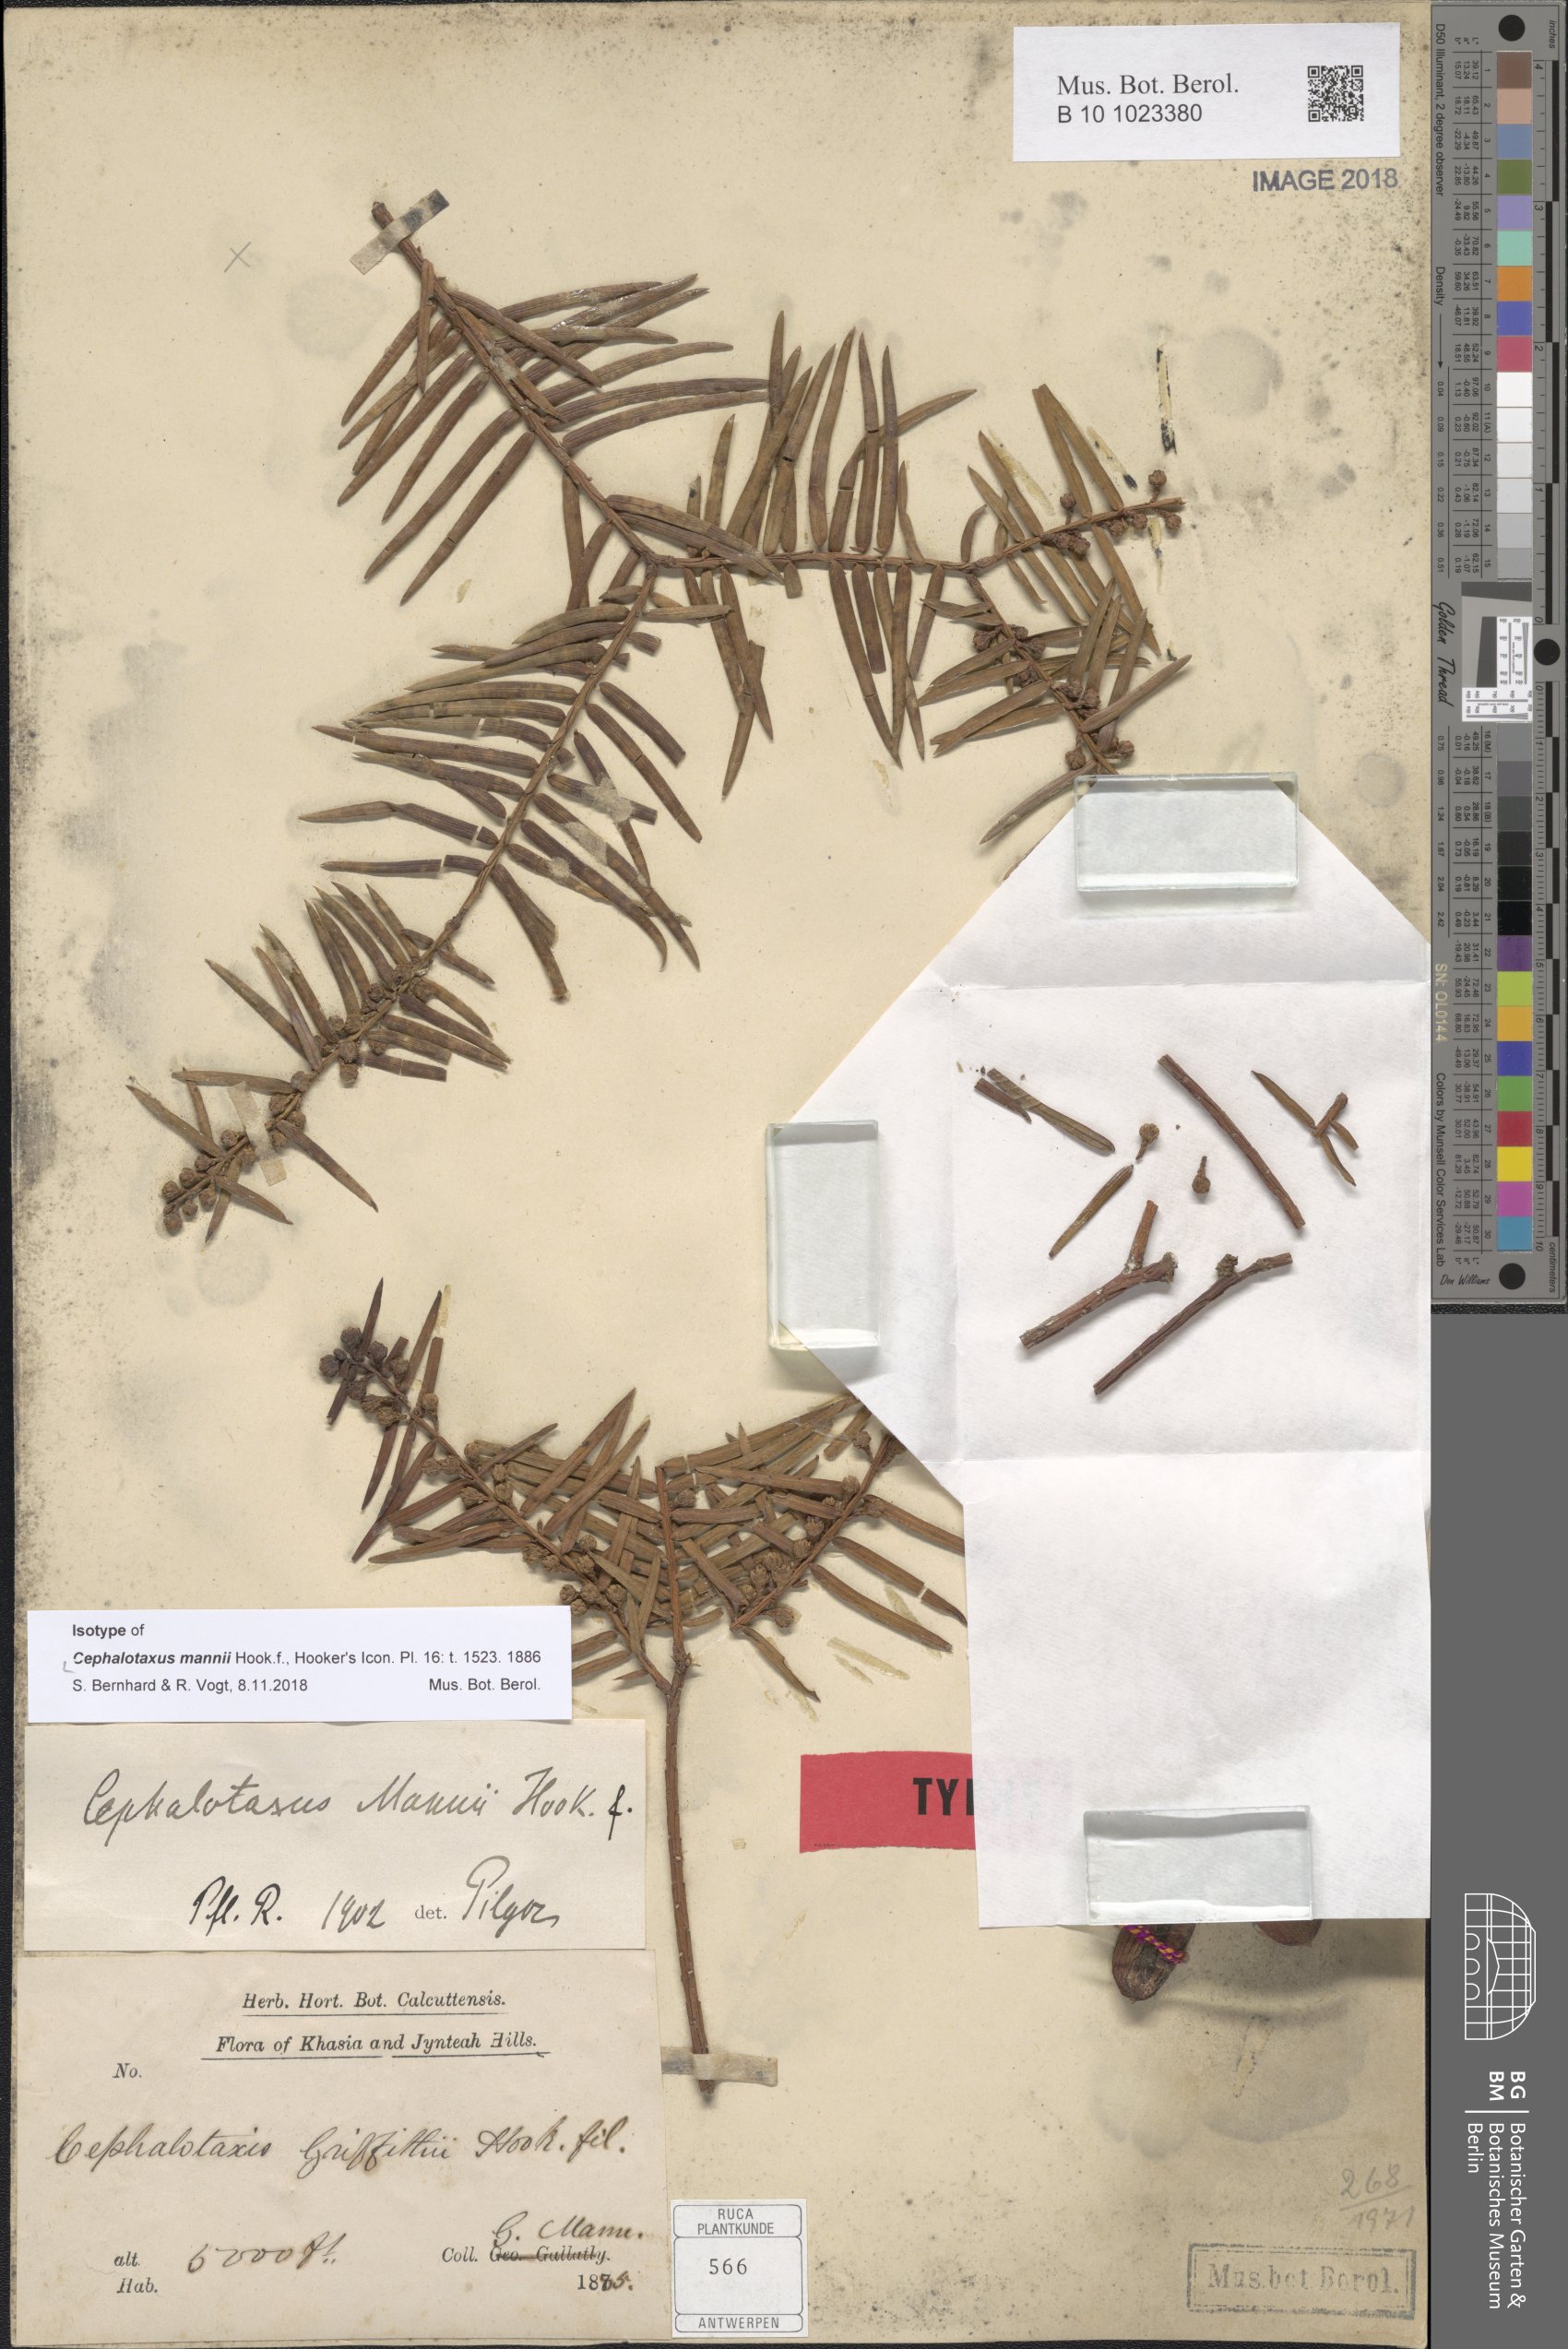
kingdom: Plantae
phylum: Tracheophyta
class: Pinopsida
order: Pinales
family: Cephalotaxaceae
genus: Cephalotaxus
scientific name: Cephalotaxus mannii
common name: Mann's yew plum
